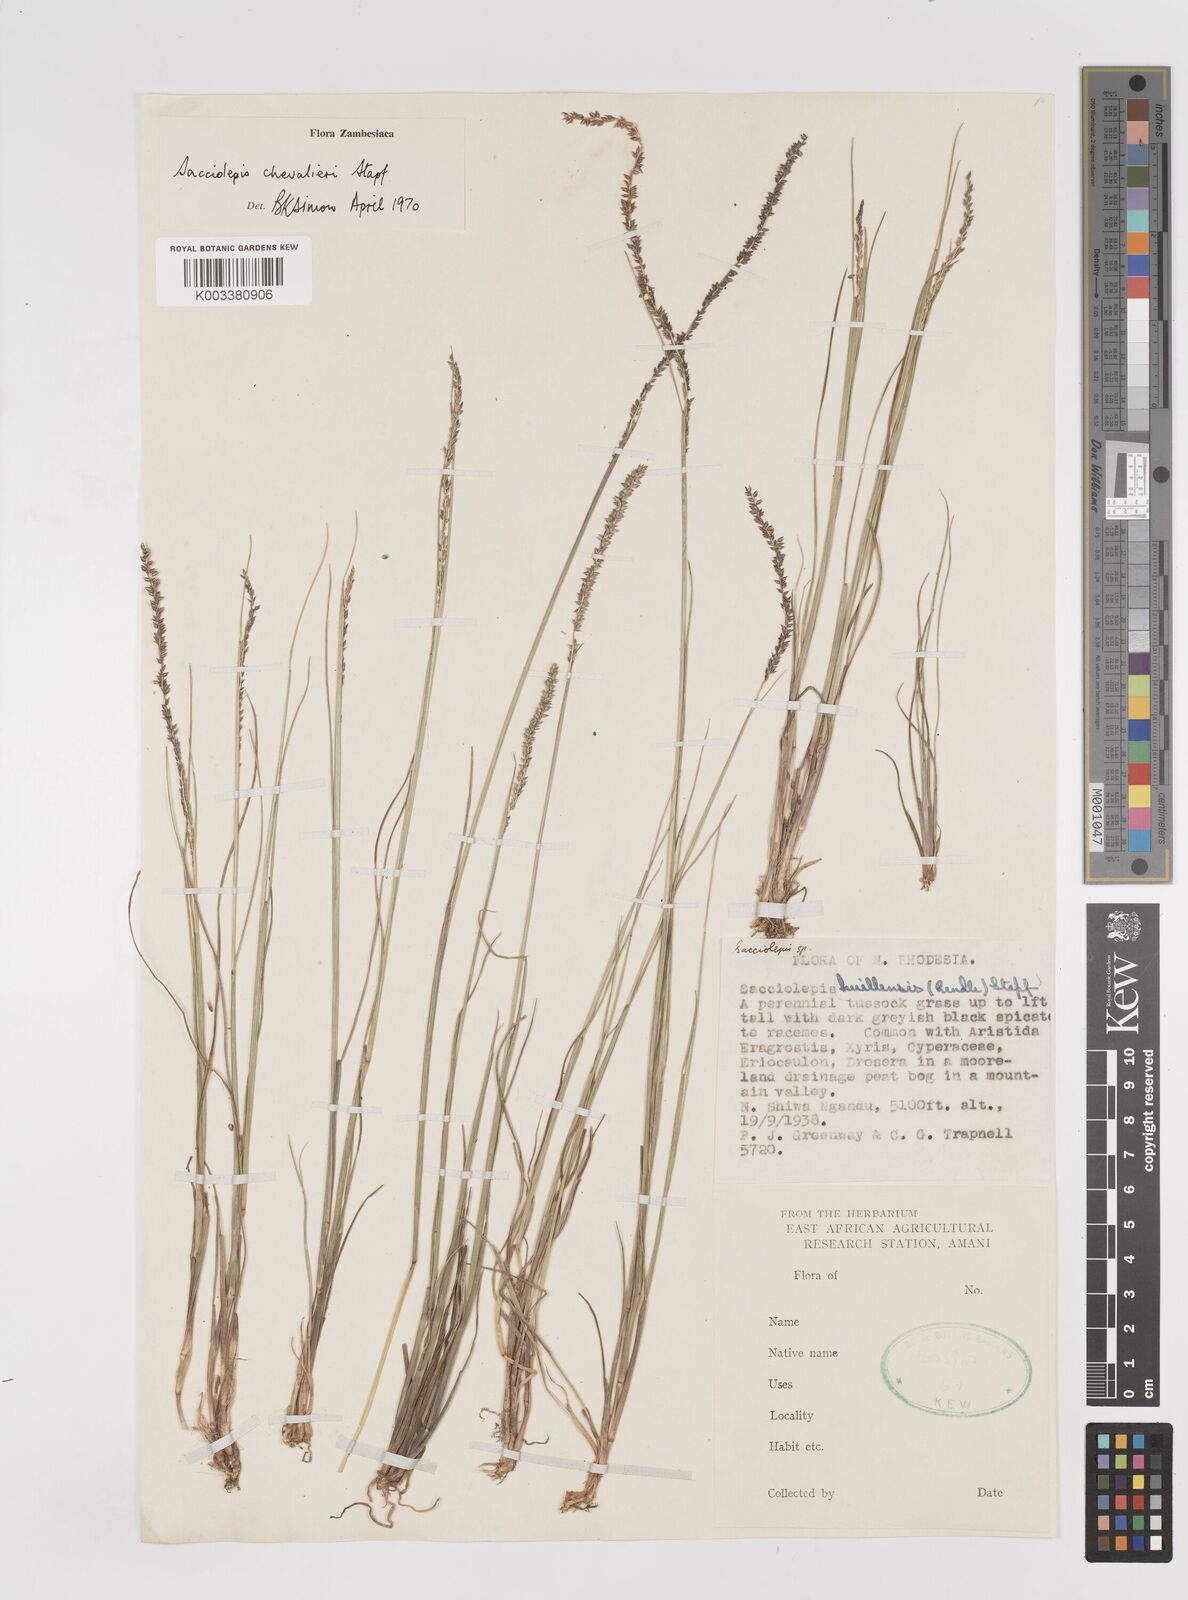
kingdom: Plantae
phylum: Tracheophyta
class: Liliopsida
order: Poales
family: Poaceae
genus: Sacciolepis
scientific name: Sacciolepis chevalieri
